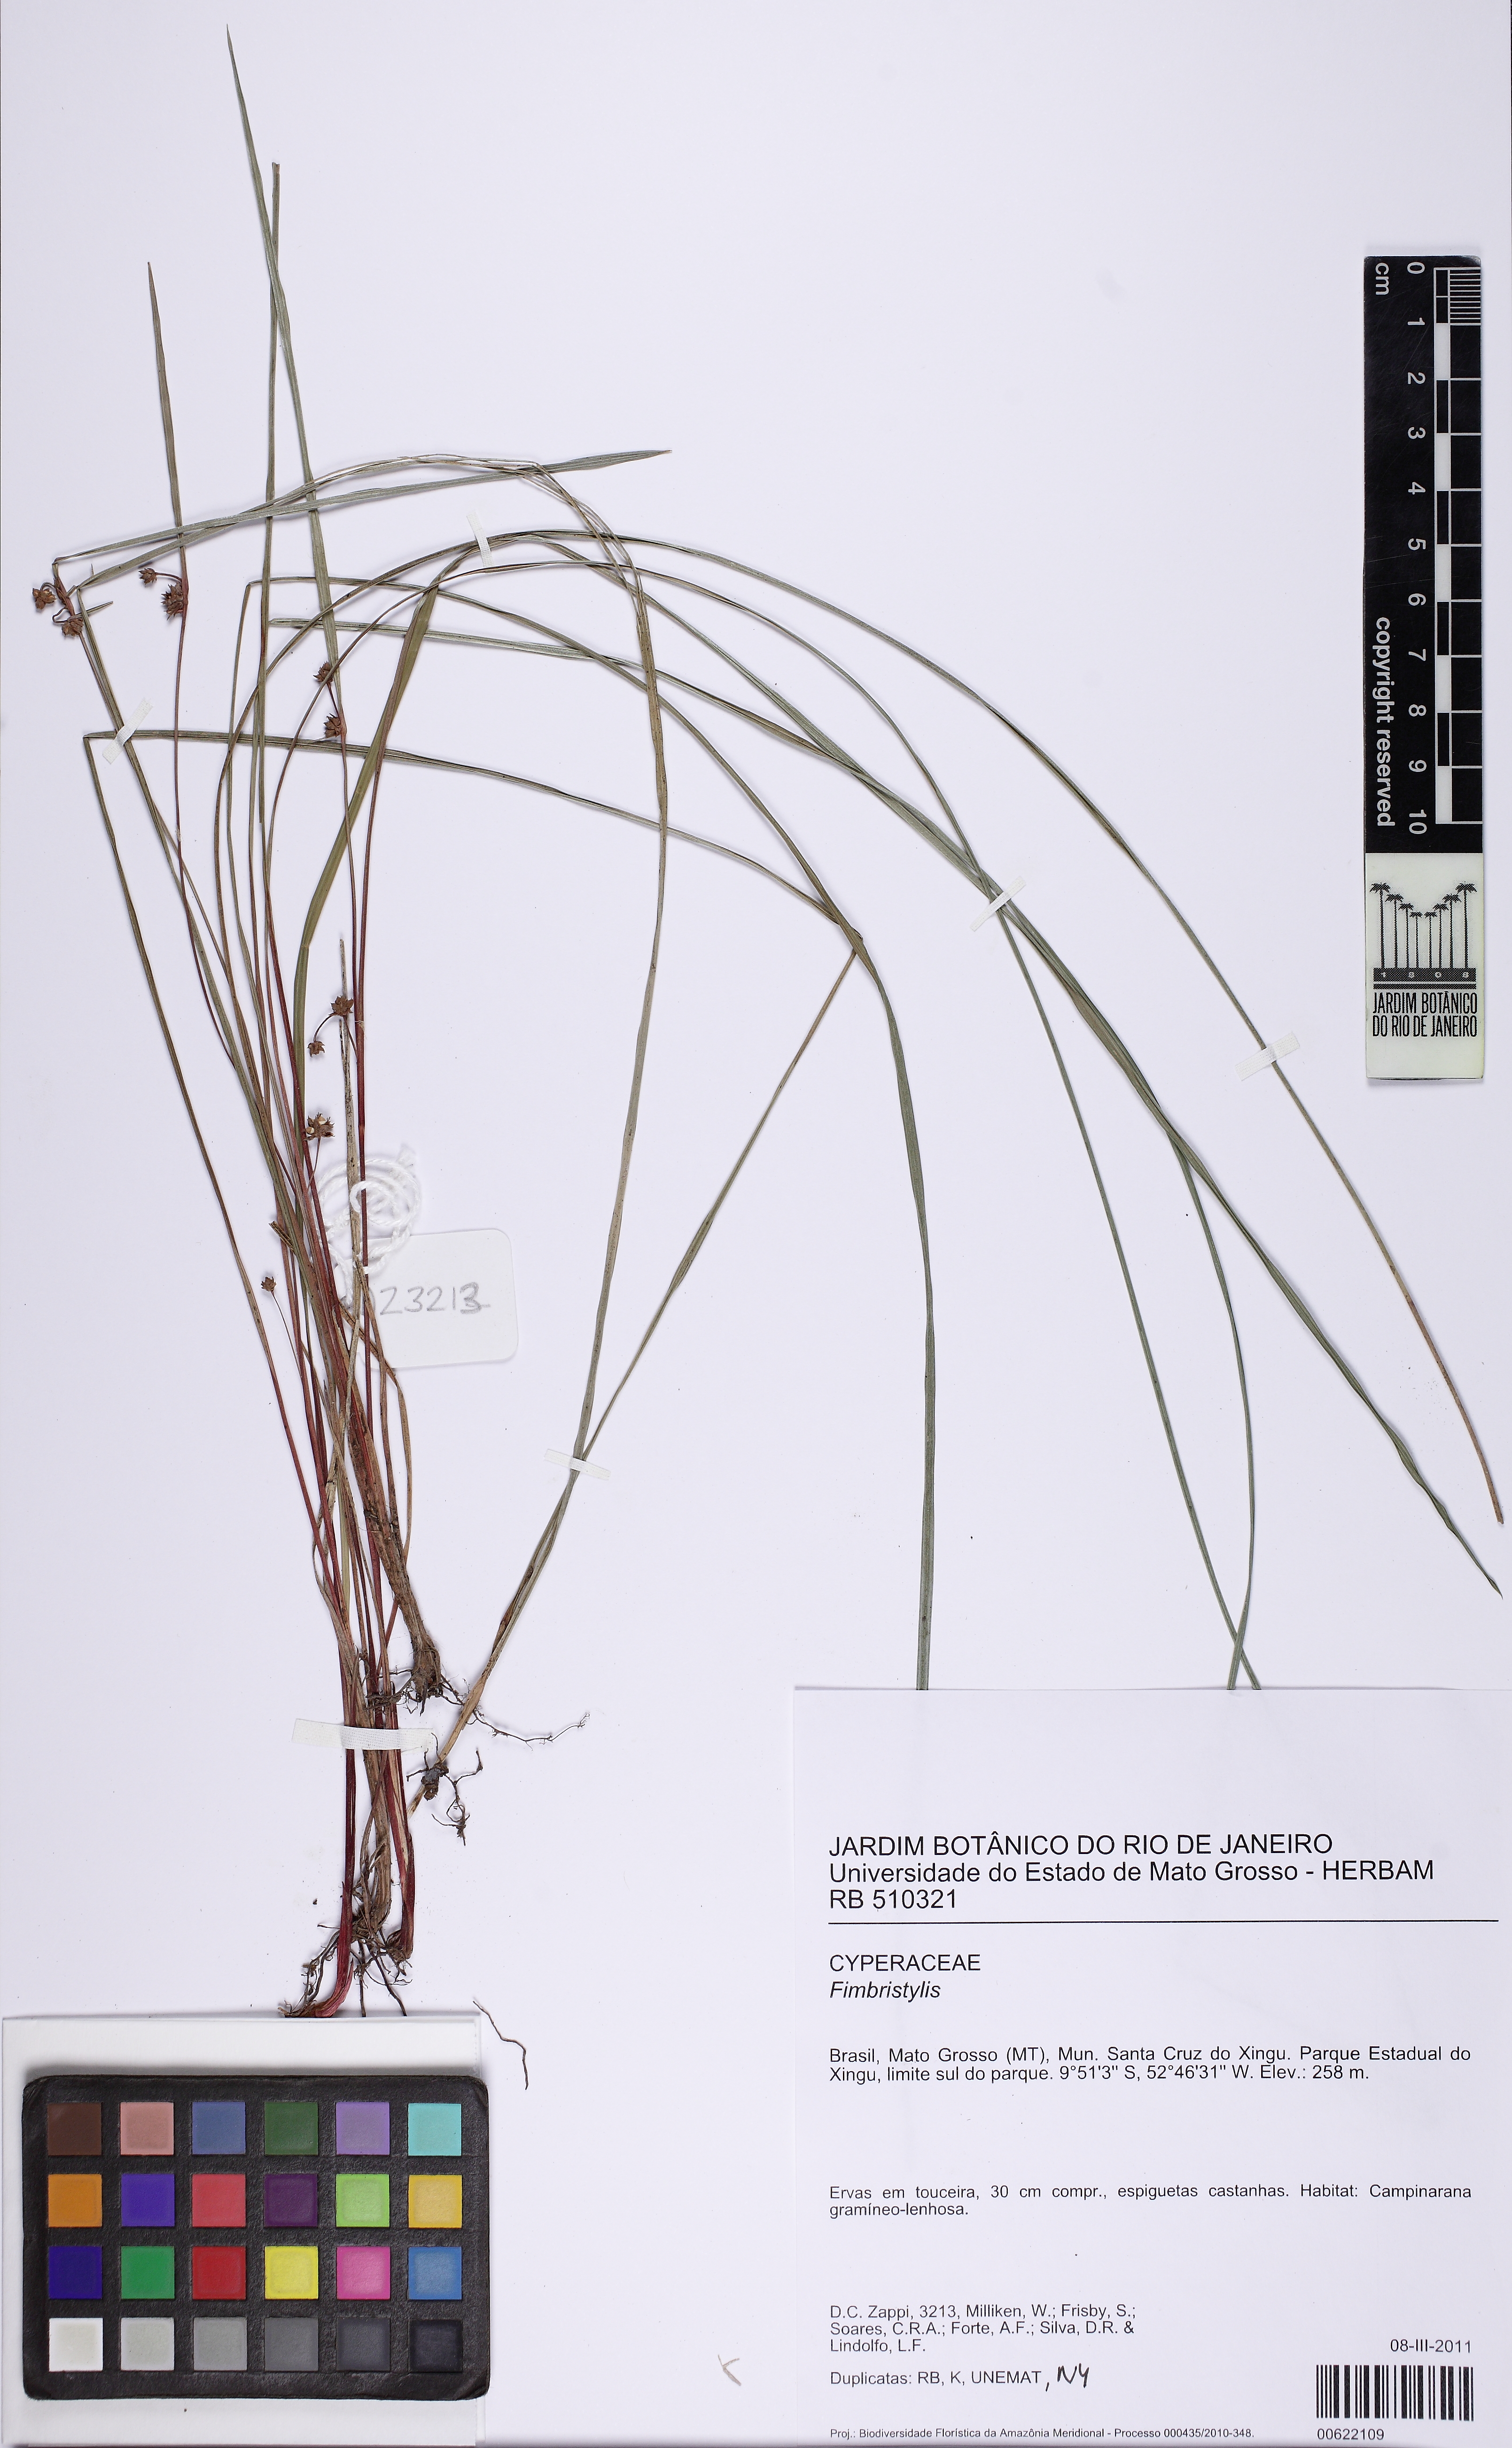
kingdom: Plantae
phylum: Tracheophyta
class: Liliopsida
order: Poales
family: Cyperaceae
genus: Calyptrocarya
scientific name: Calyptrocarya
